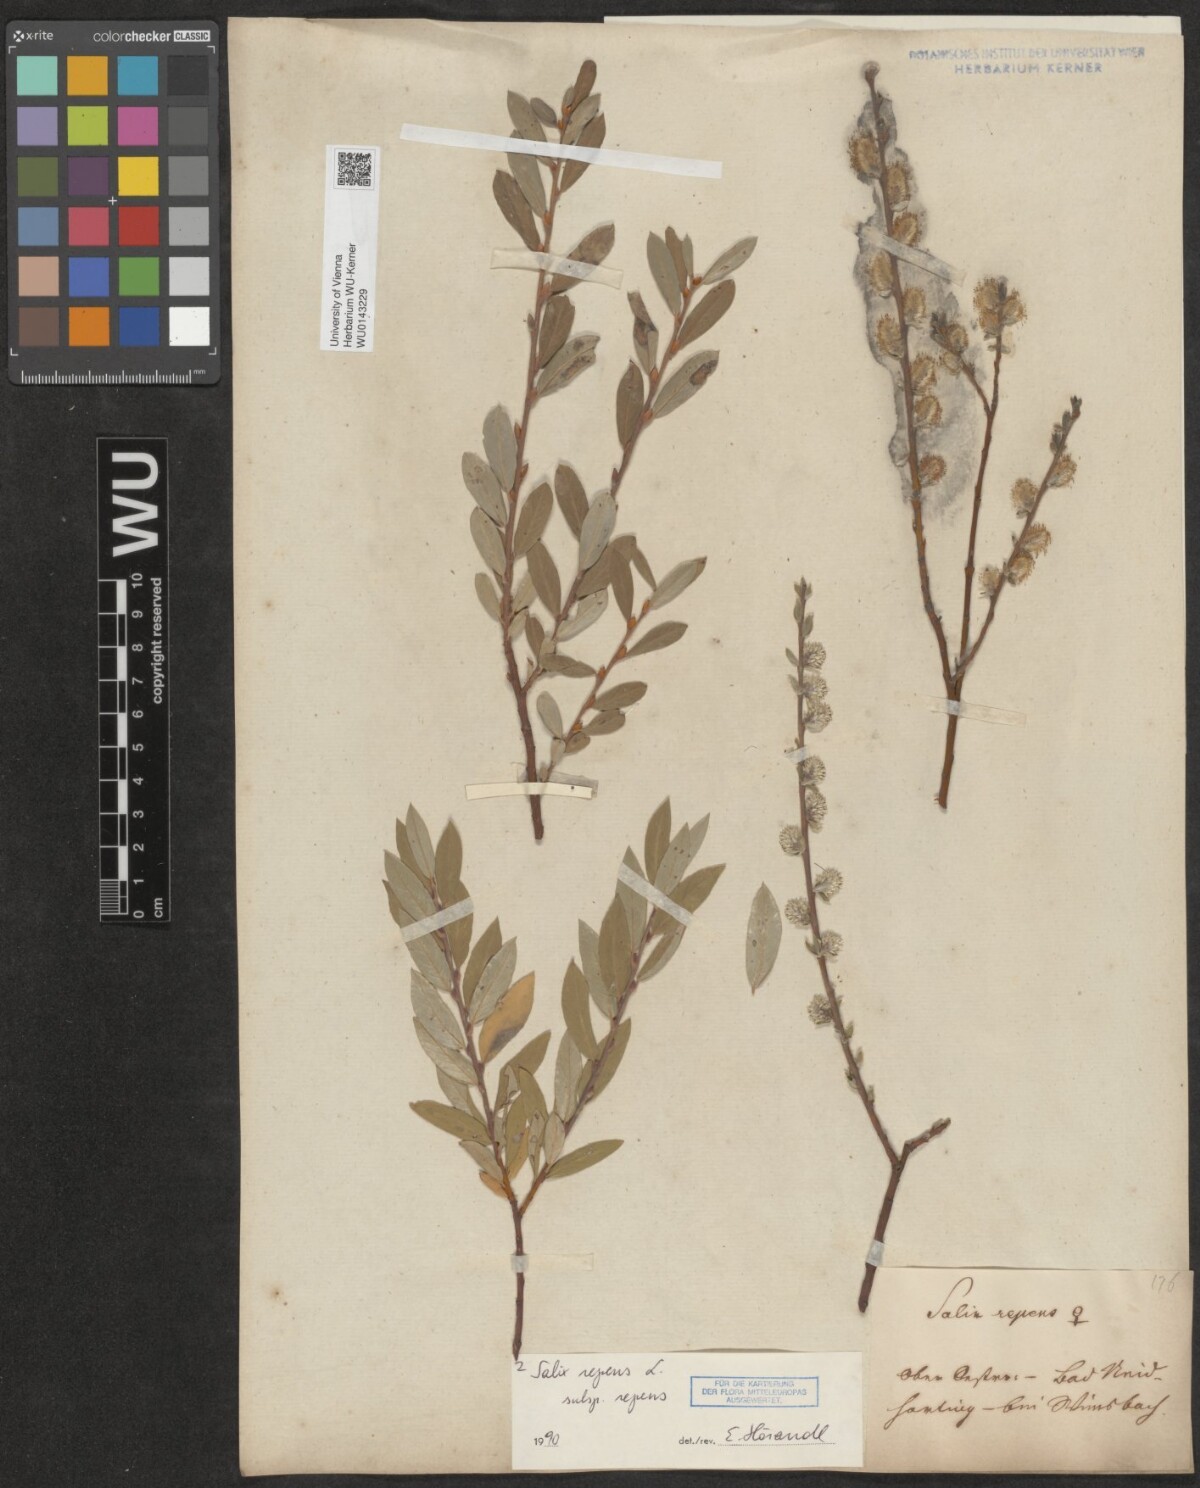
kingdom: Plantae
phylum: Tracheophyta
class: Magnoliopsida
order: Malpighiales
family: Salicaceae
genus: Salix
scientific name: Salix repens
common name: Creeping willow
